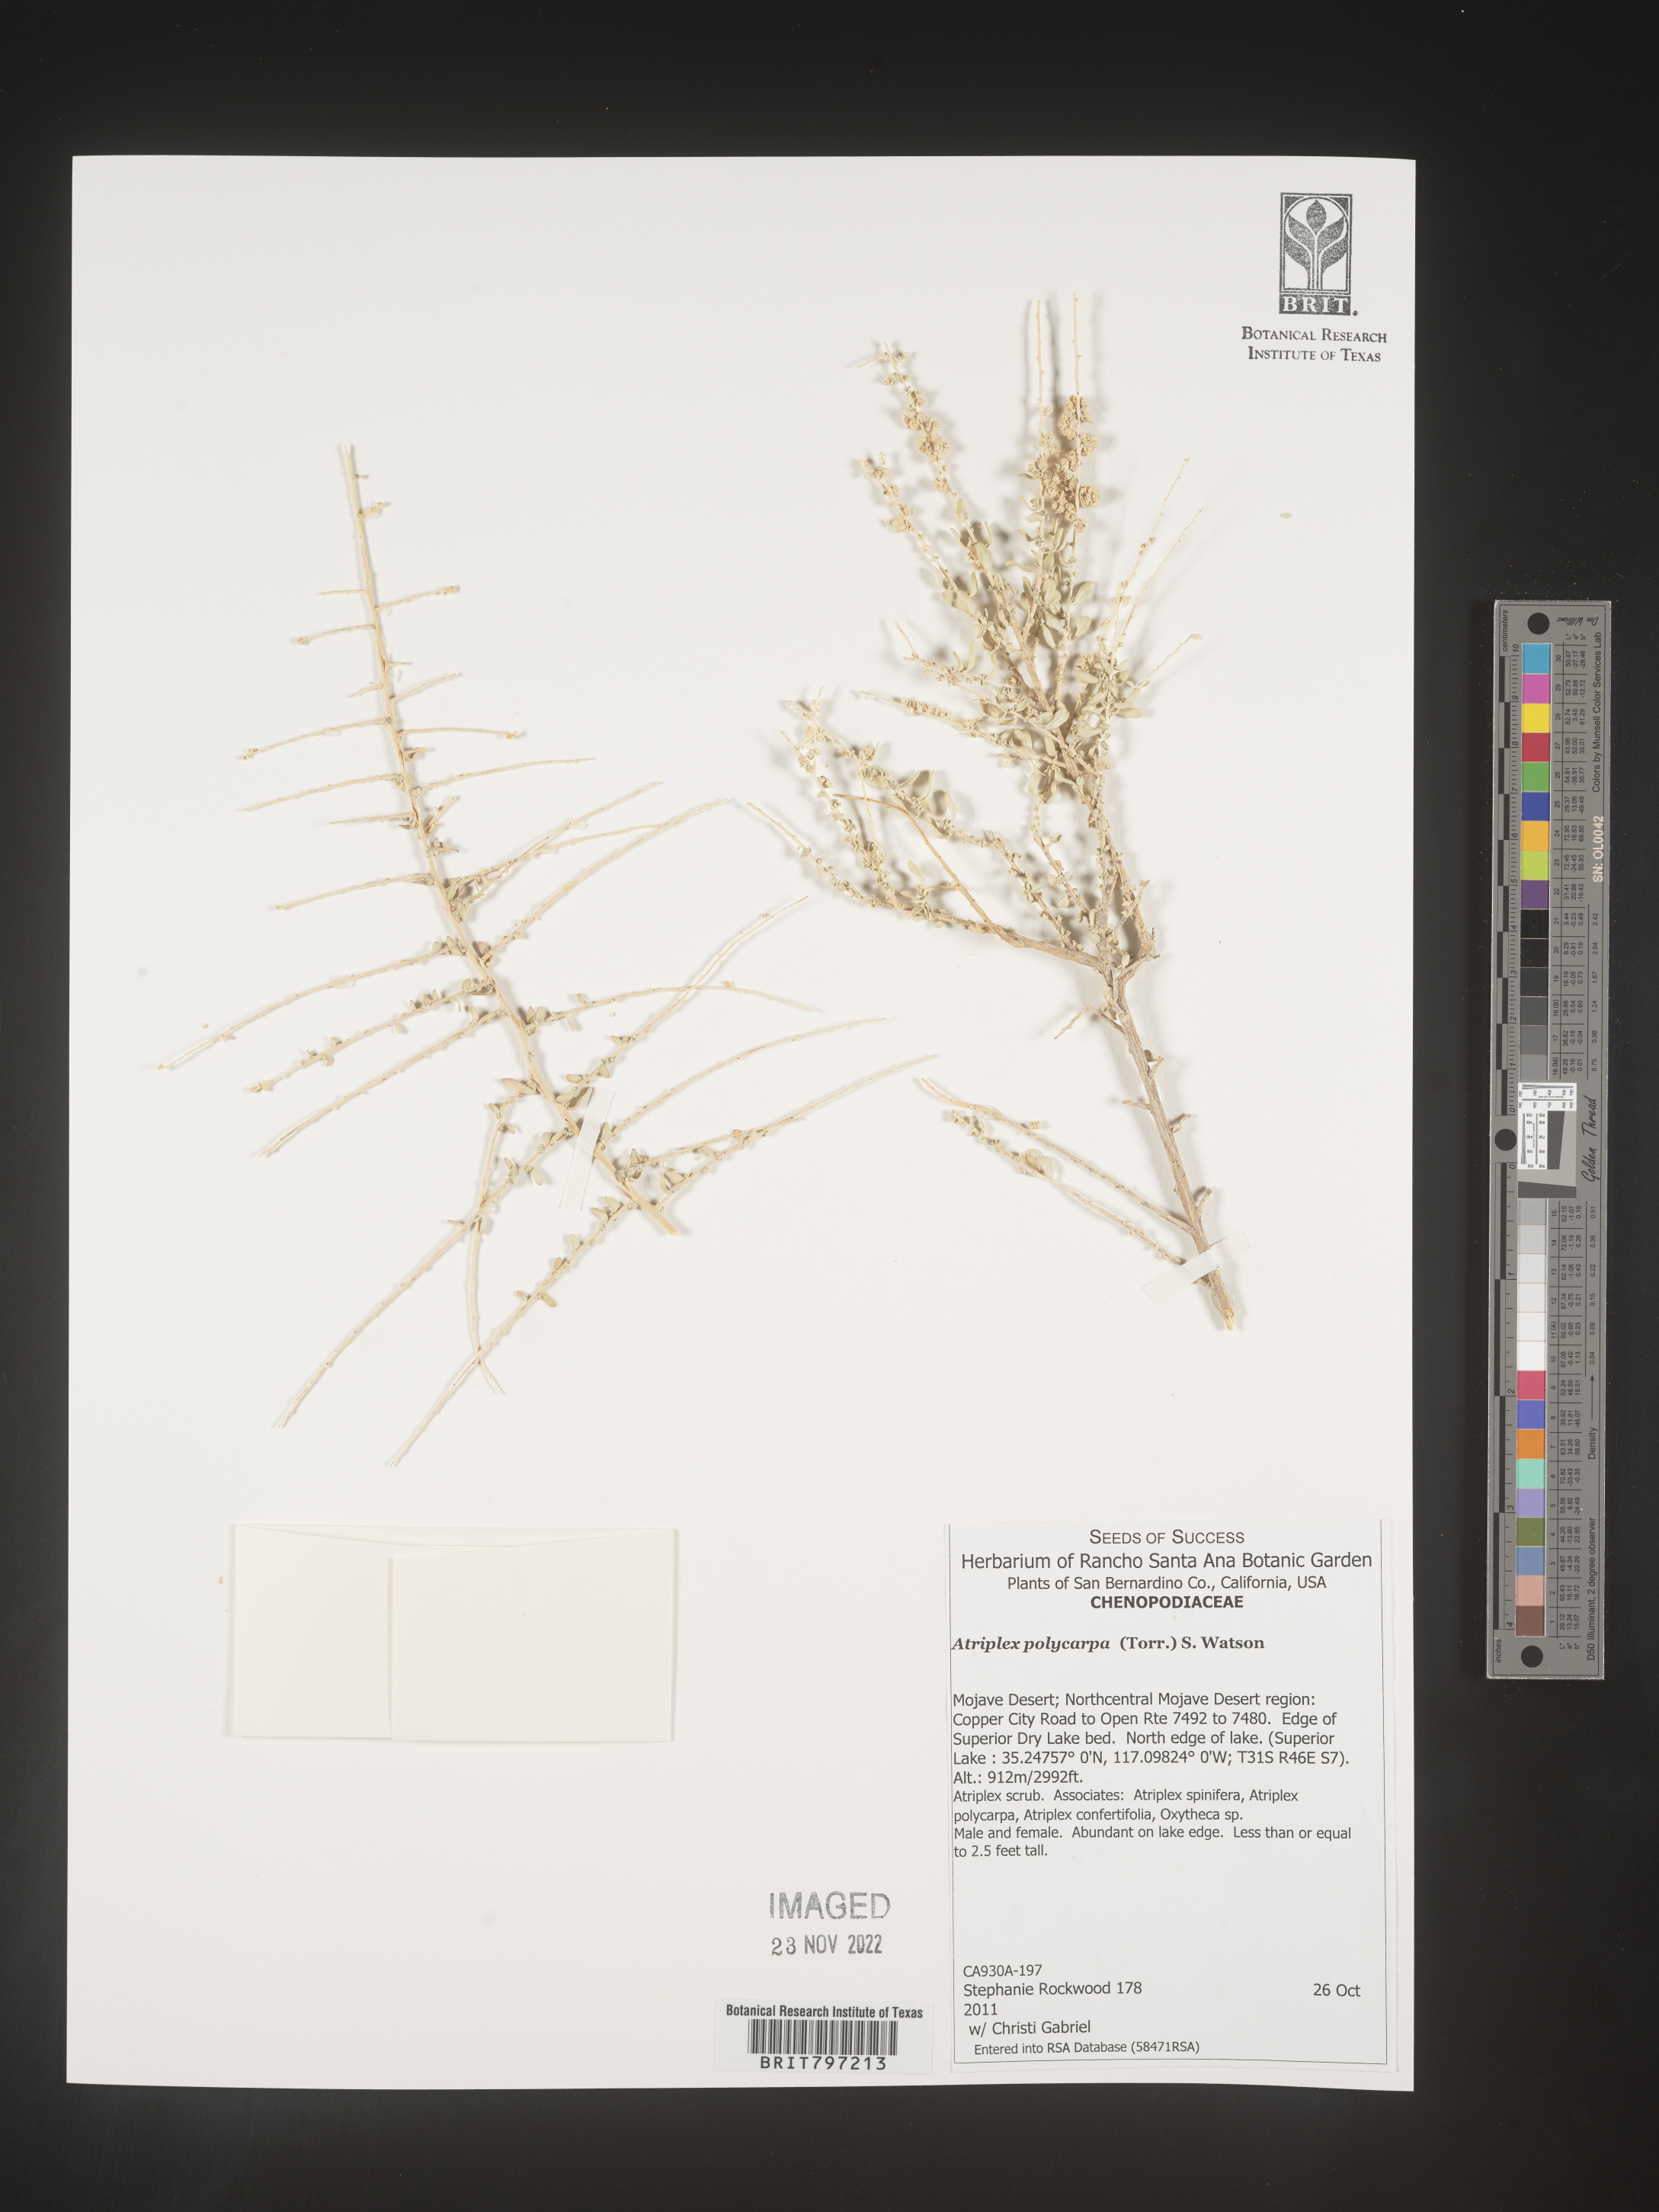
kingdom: Plantae
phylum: Tracheophyta
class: Magnoliopsida
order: Caryophyllales
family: Amaranthaceae
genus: Atriplex
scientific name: Atriplex polycarpa
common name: Desert saltbush
